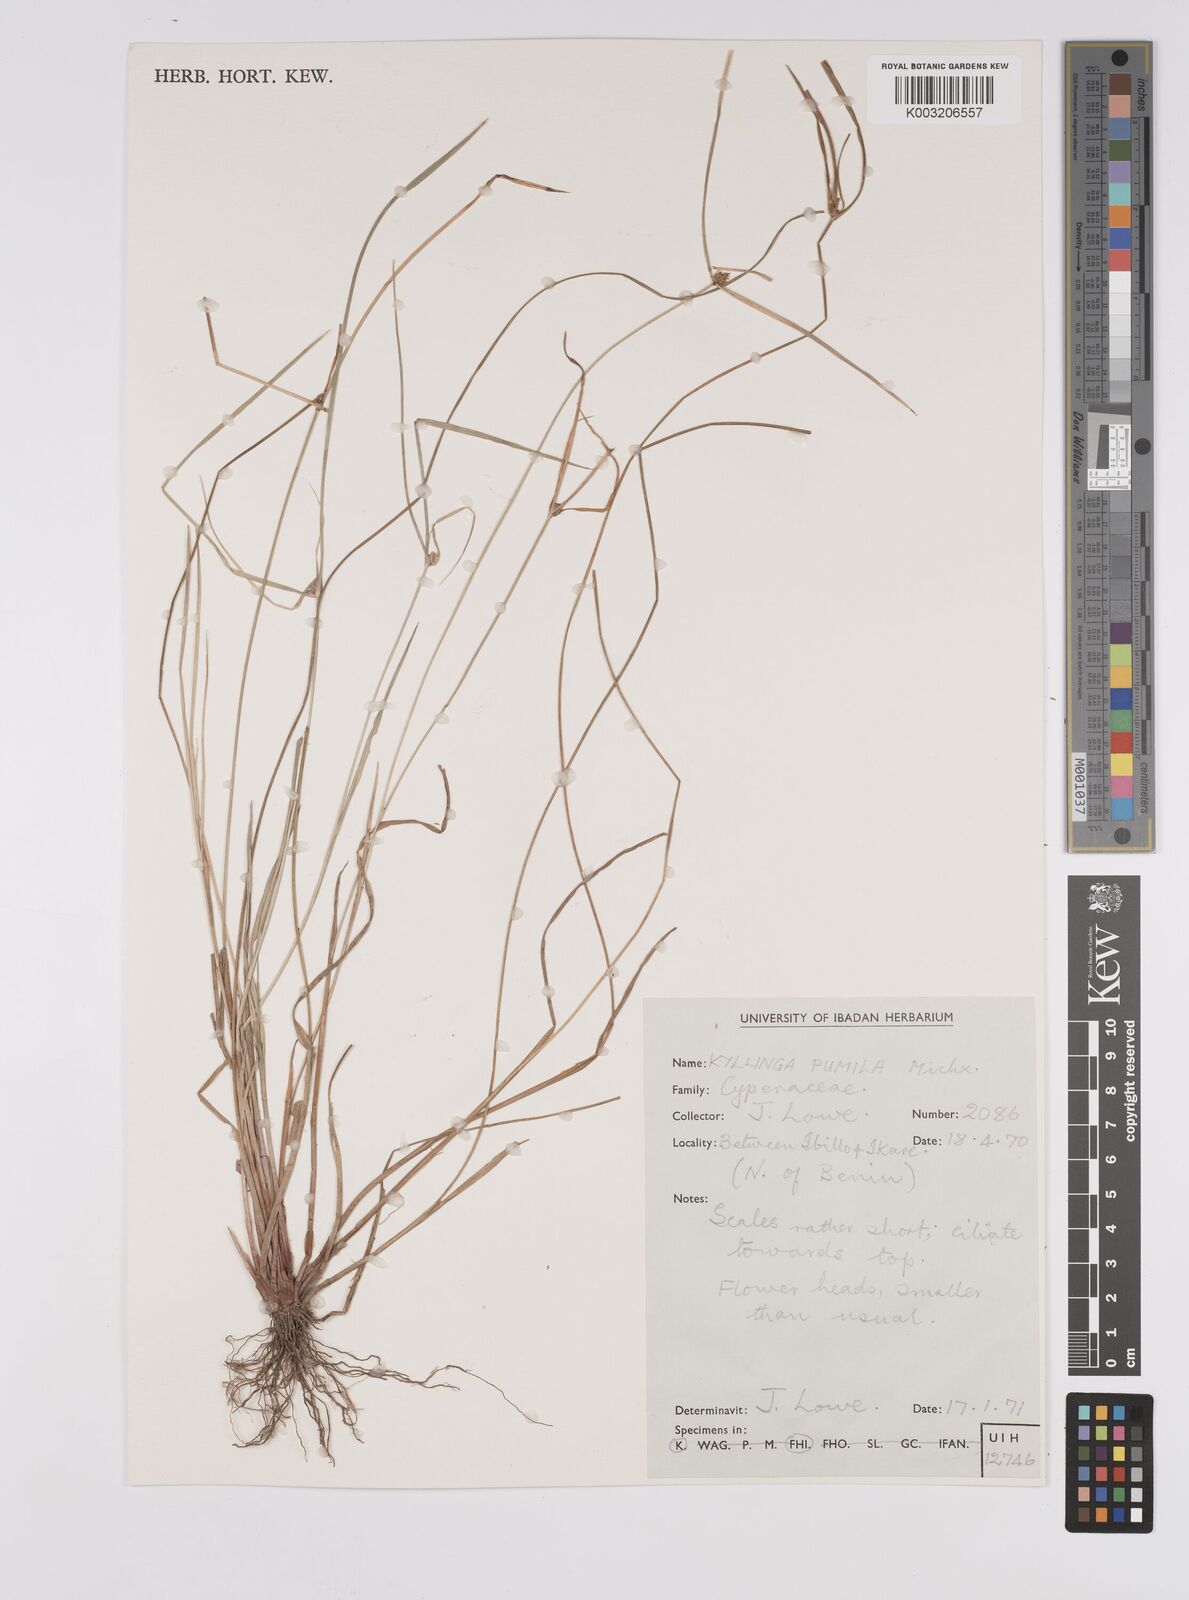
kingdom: Plantae
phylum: Tracheophyta
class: Liliopsida
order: Poales
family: Cyperaceae
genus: Cyperus
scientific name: Cyperus
